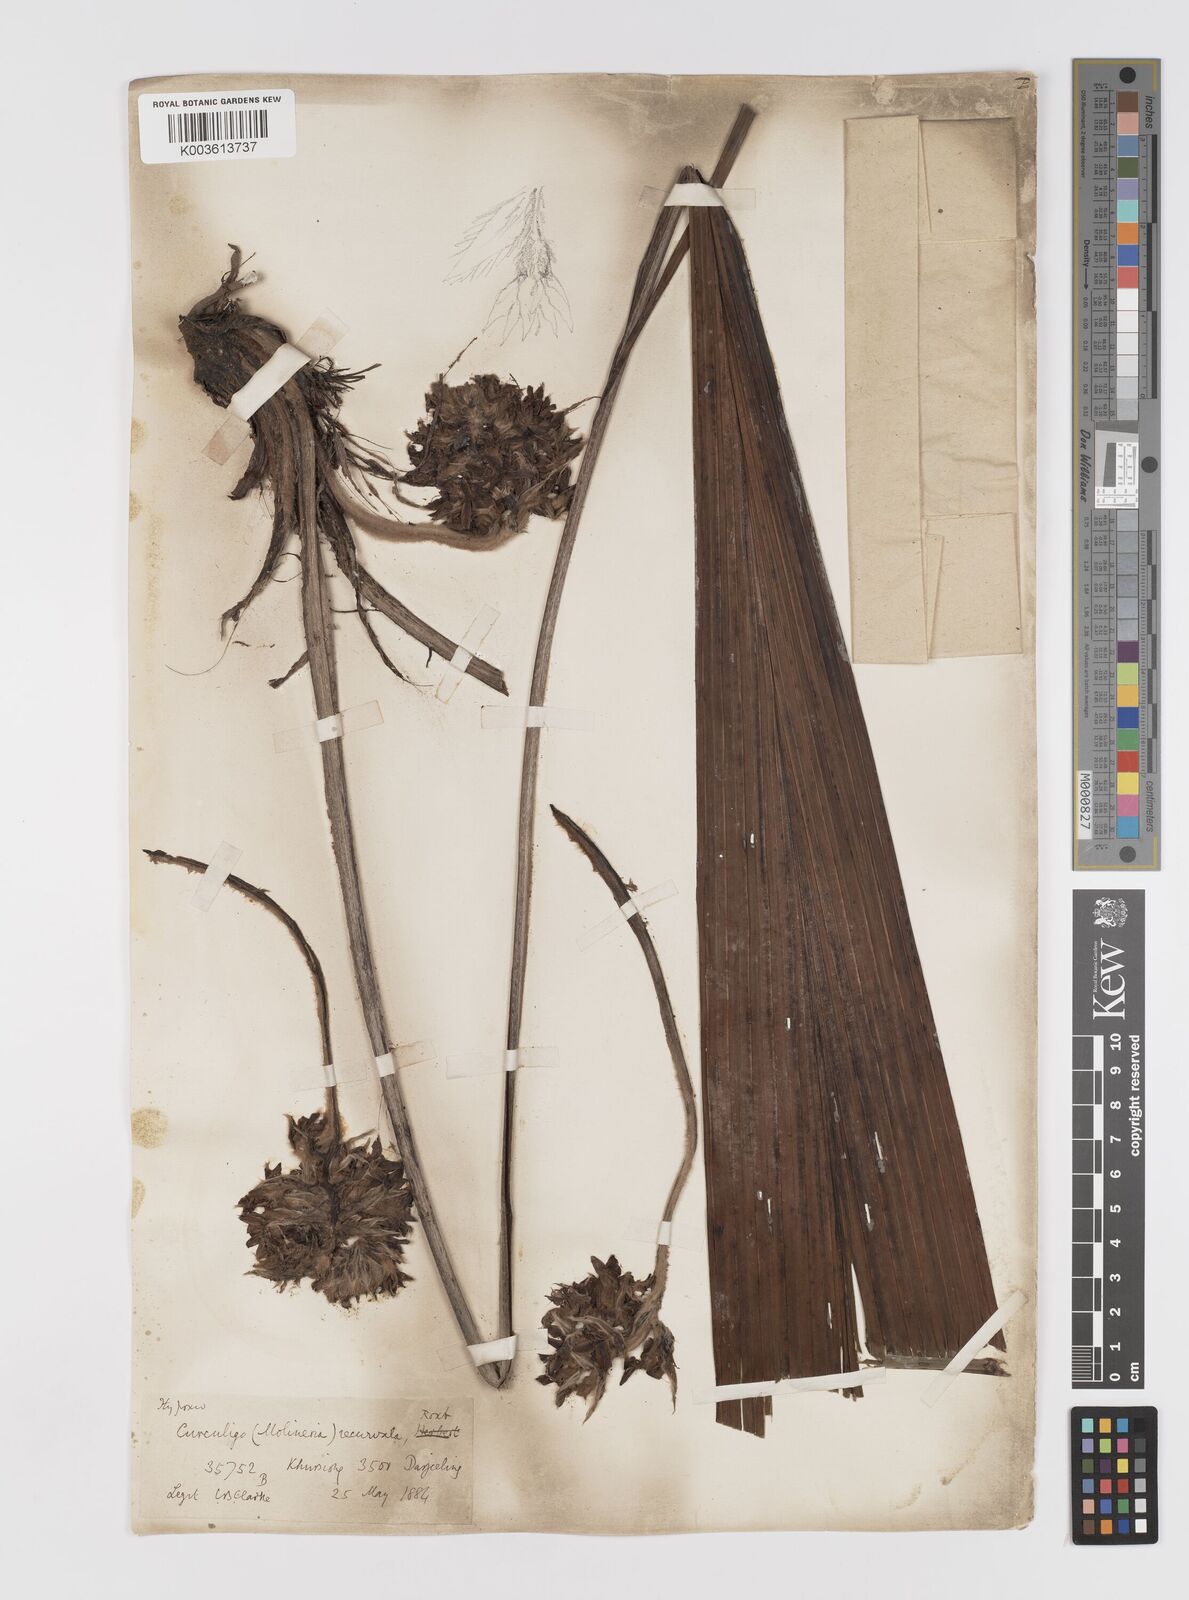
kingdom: Plantae
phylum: Tracheophyta
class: Liliopsida
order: Asparagales
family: Hypoxidaceae
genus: Curculigo
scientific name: Curculigo capitulata
